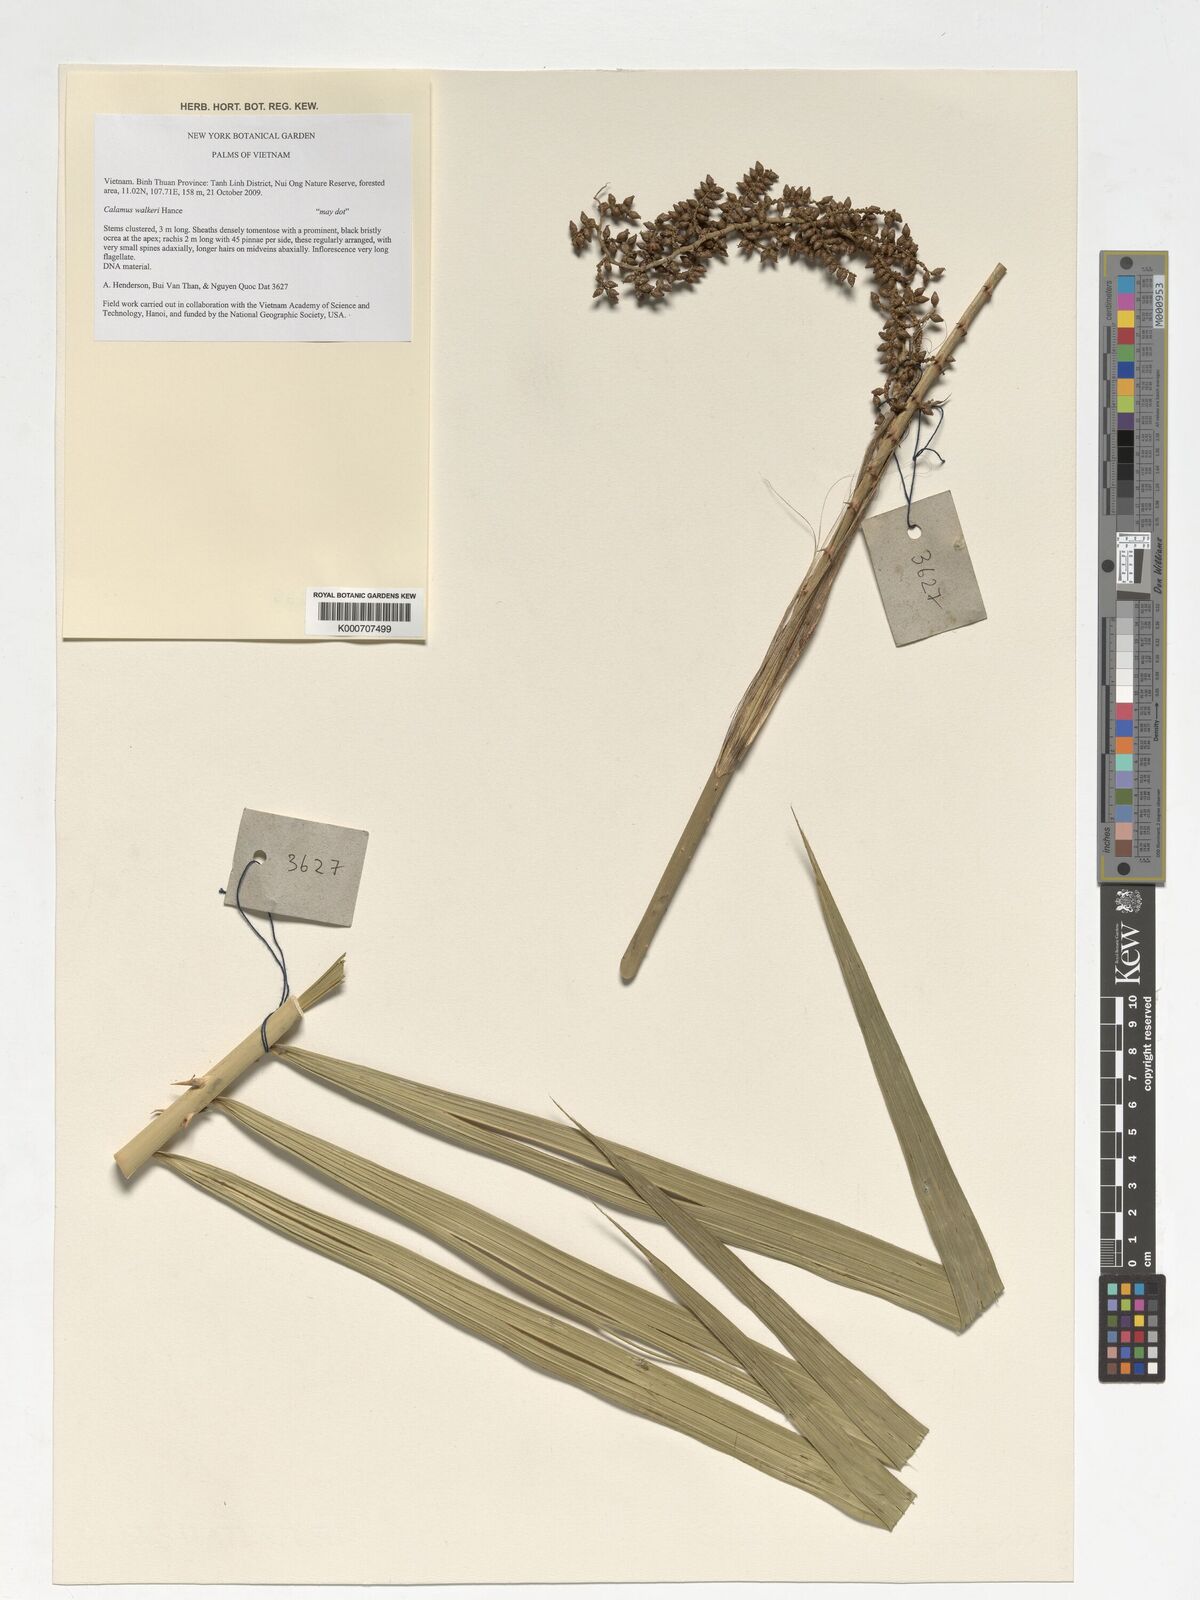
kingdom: Plantae
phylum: Tracheophyta
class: Liliopsida
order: Arecales
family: Arecaceae
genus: Calamus
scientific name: Calamus velutinus
